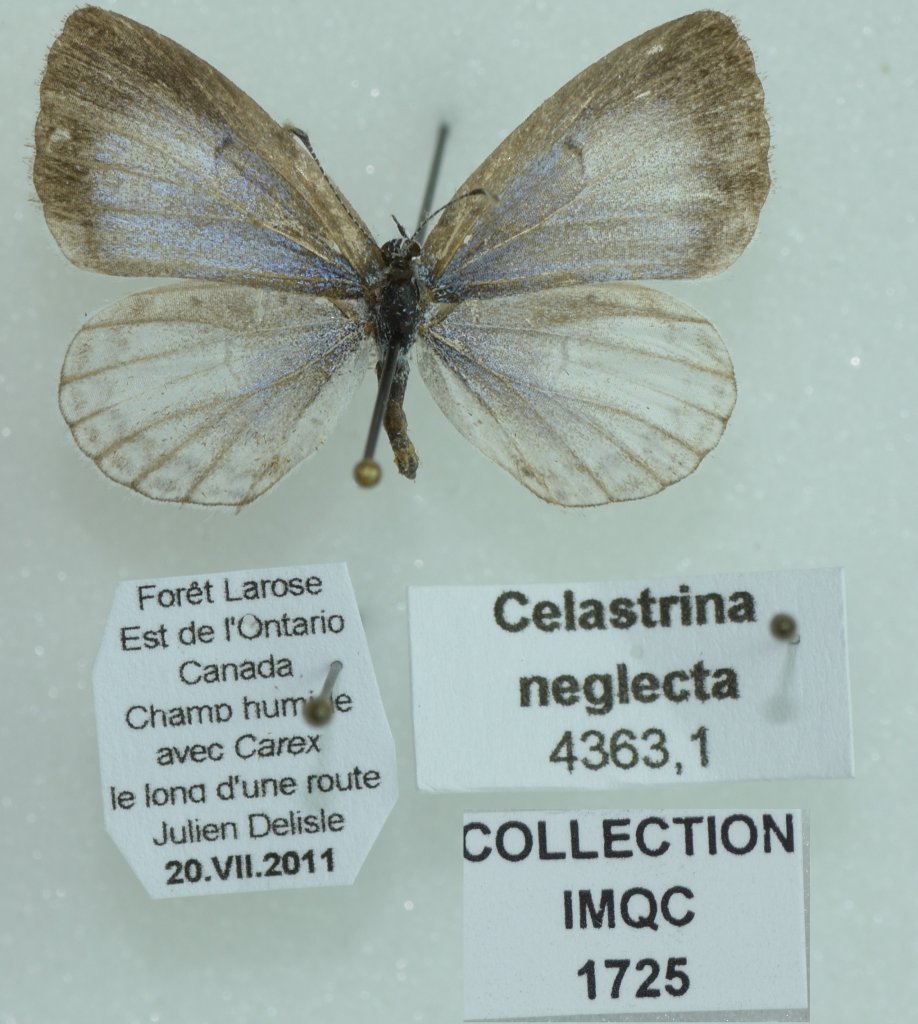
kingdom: Animalia
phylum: Arthropoda
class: Insecta
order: Lepidoptera
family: Lycaenidae
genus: Celastrina
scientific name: Celastrina lucia
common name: Northern Spring Azure
